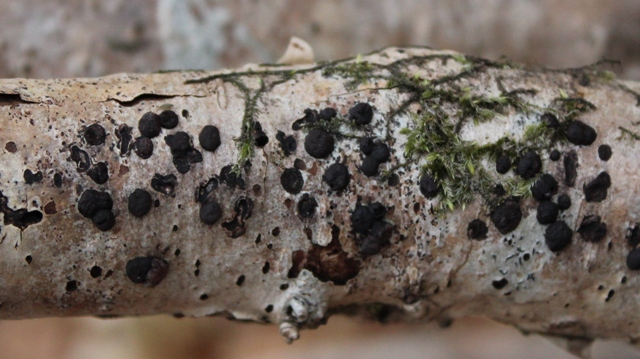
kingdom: Fungi
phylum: Ascomycota
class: Sordariomycetes
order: Xylariales
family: Hypoxylaceae
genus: Hypoxylon
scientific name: Hypoxylon fuscum
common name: kegleformet kulbær
